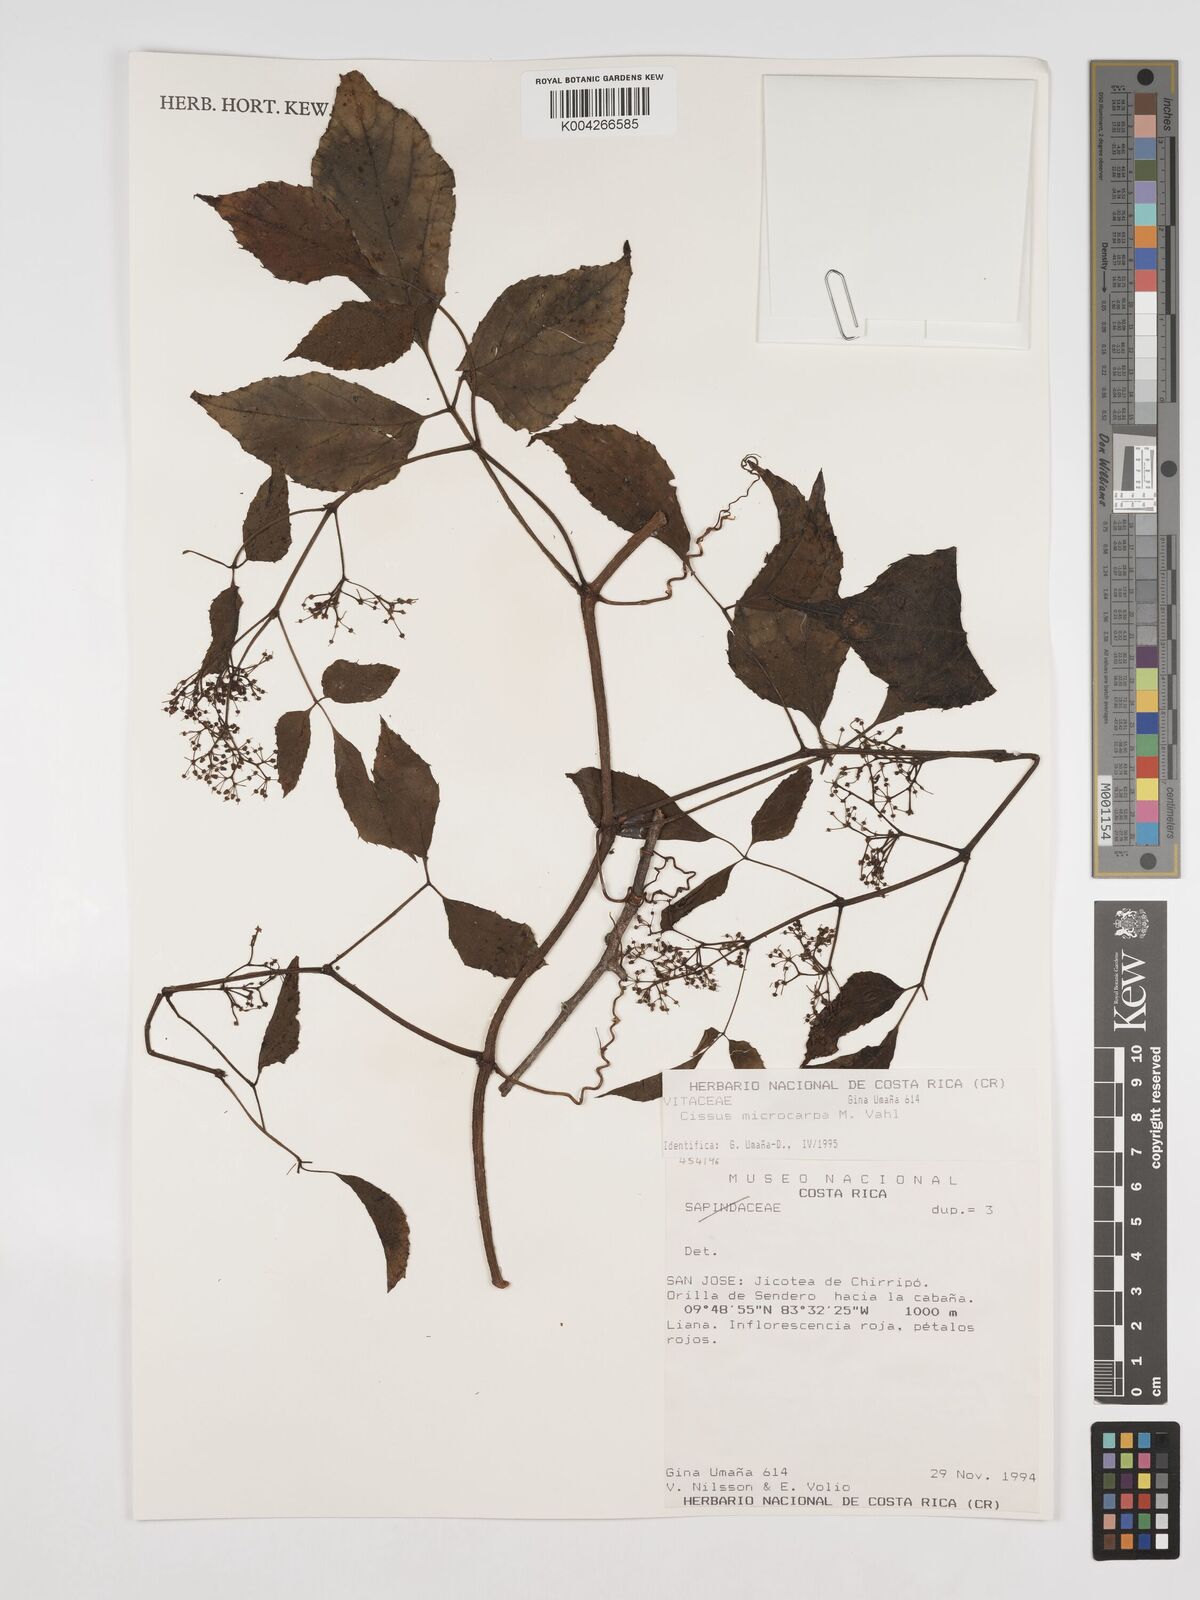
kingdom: Plantae
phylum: Tracheophyta
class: Magnoliopsida
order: Vitales
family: Vitaceae
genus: Cissus
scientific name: Cissus microcarpa
